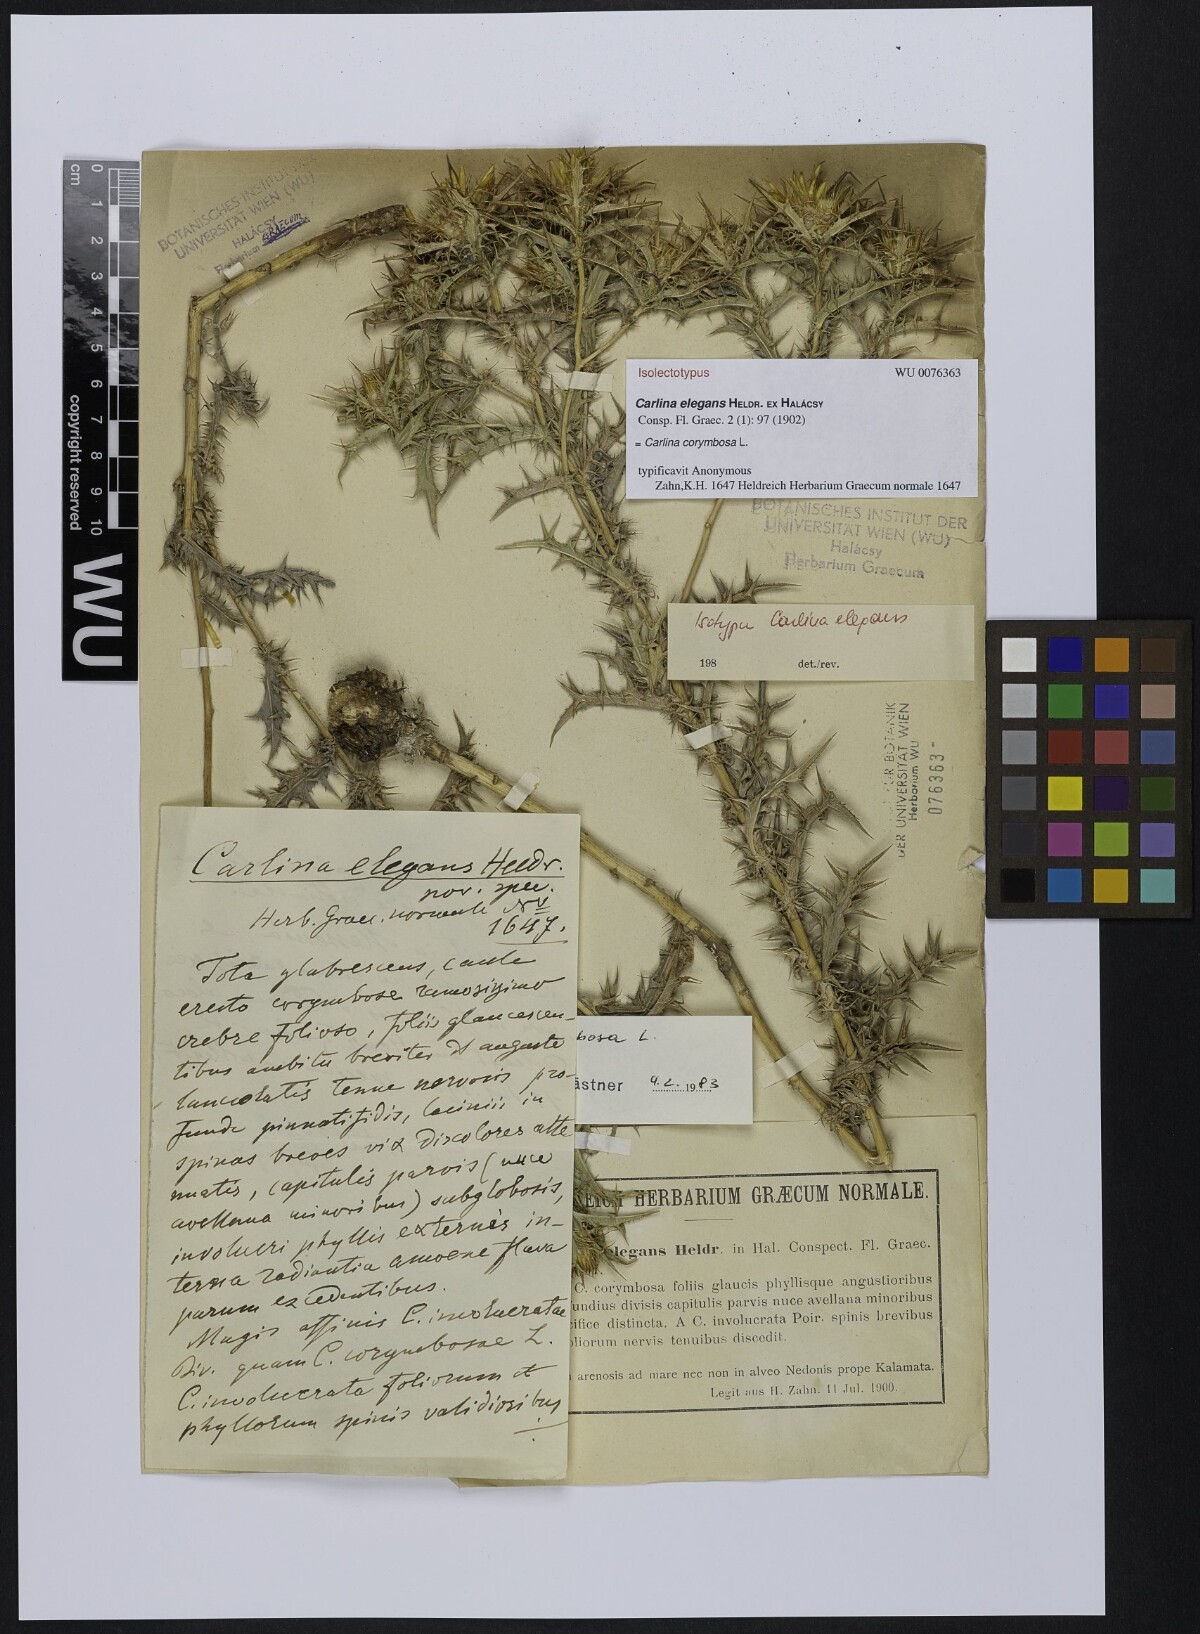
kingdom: Plantae
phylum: Tracheophyta
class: Magnoliopsida
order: Asterales
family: Asteraceae
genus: Carlina
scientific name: Carlina corymbosa
